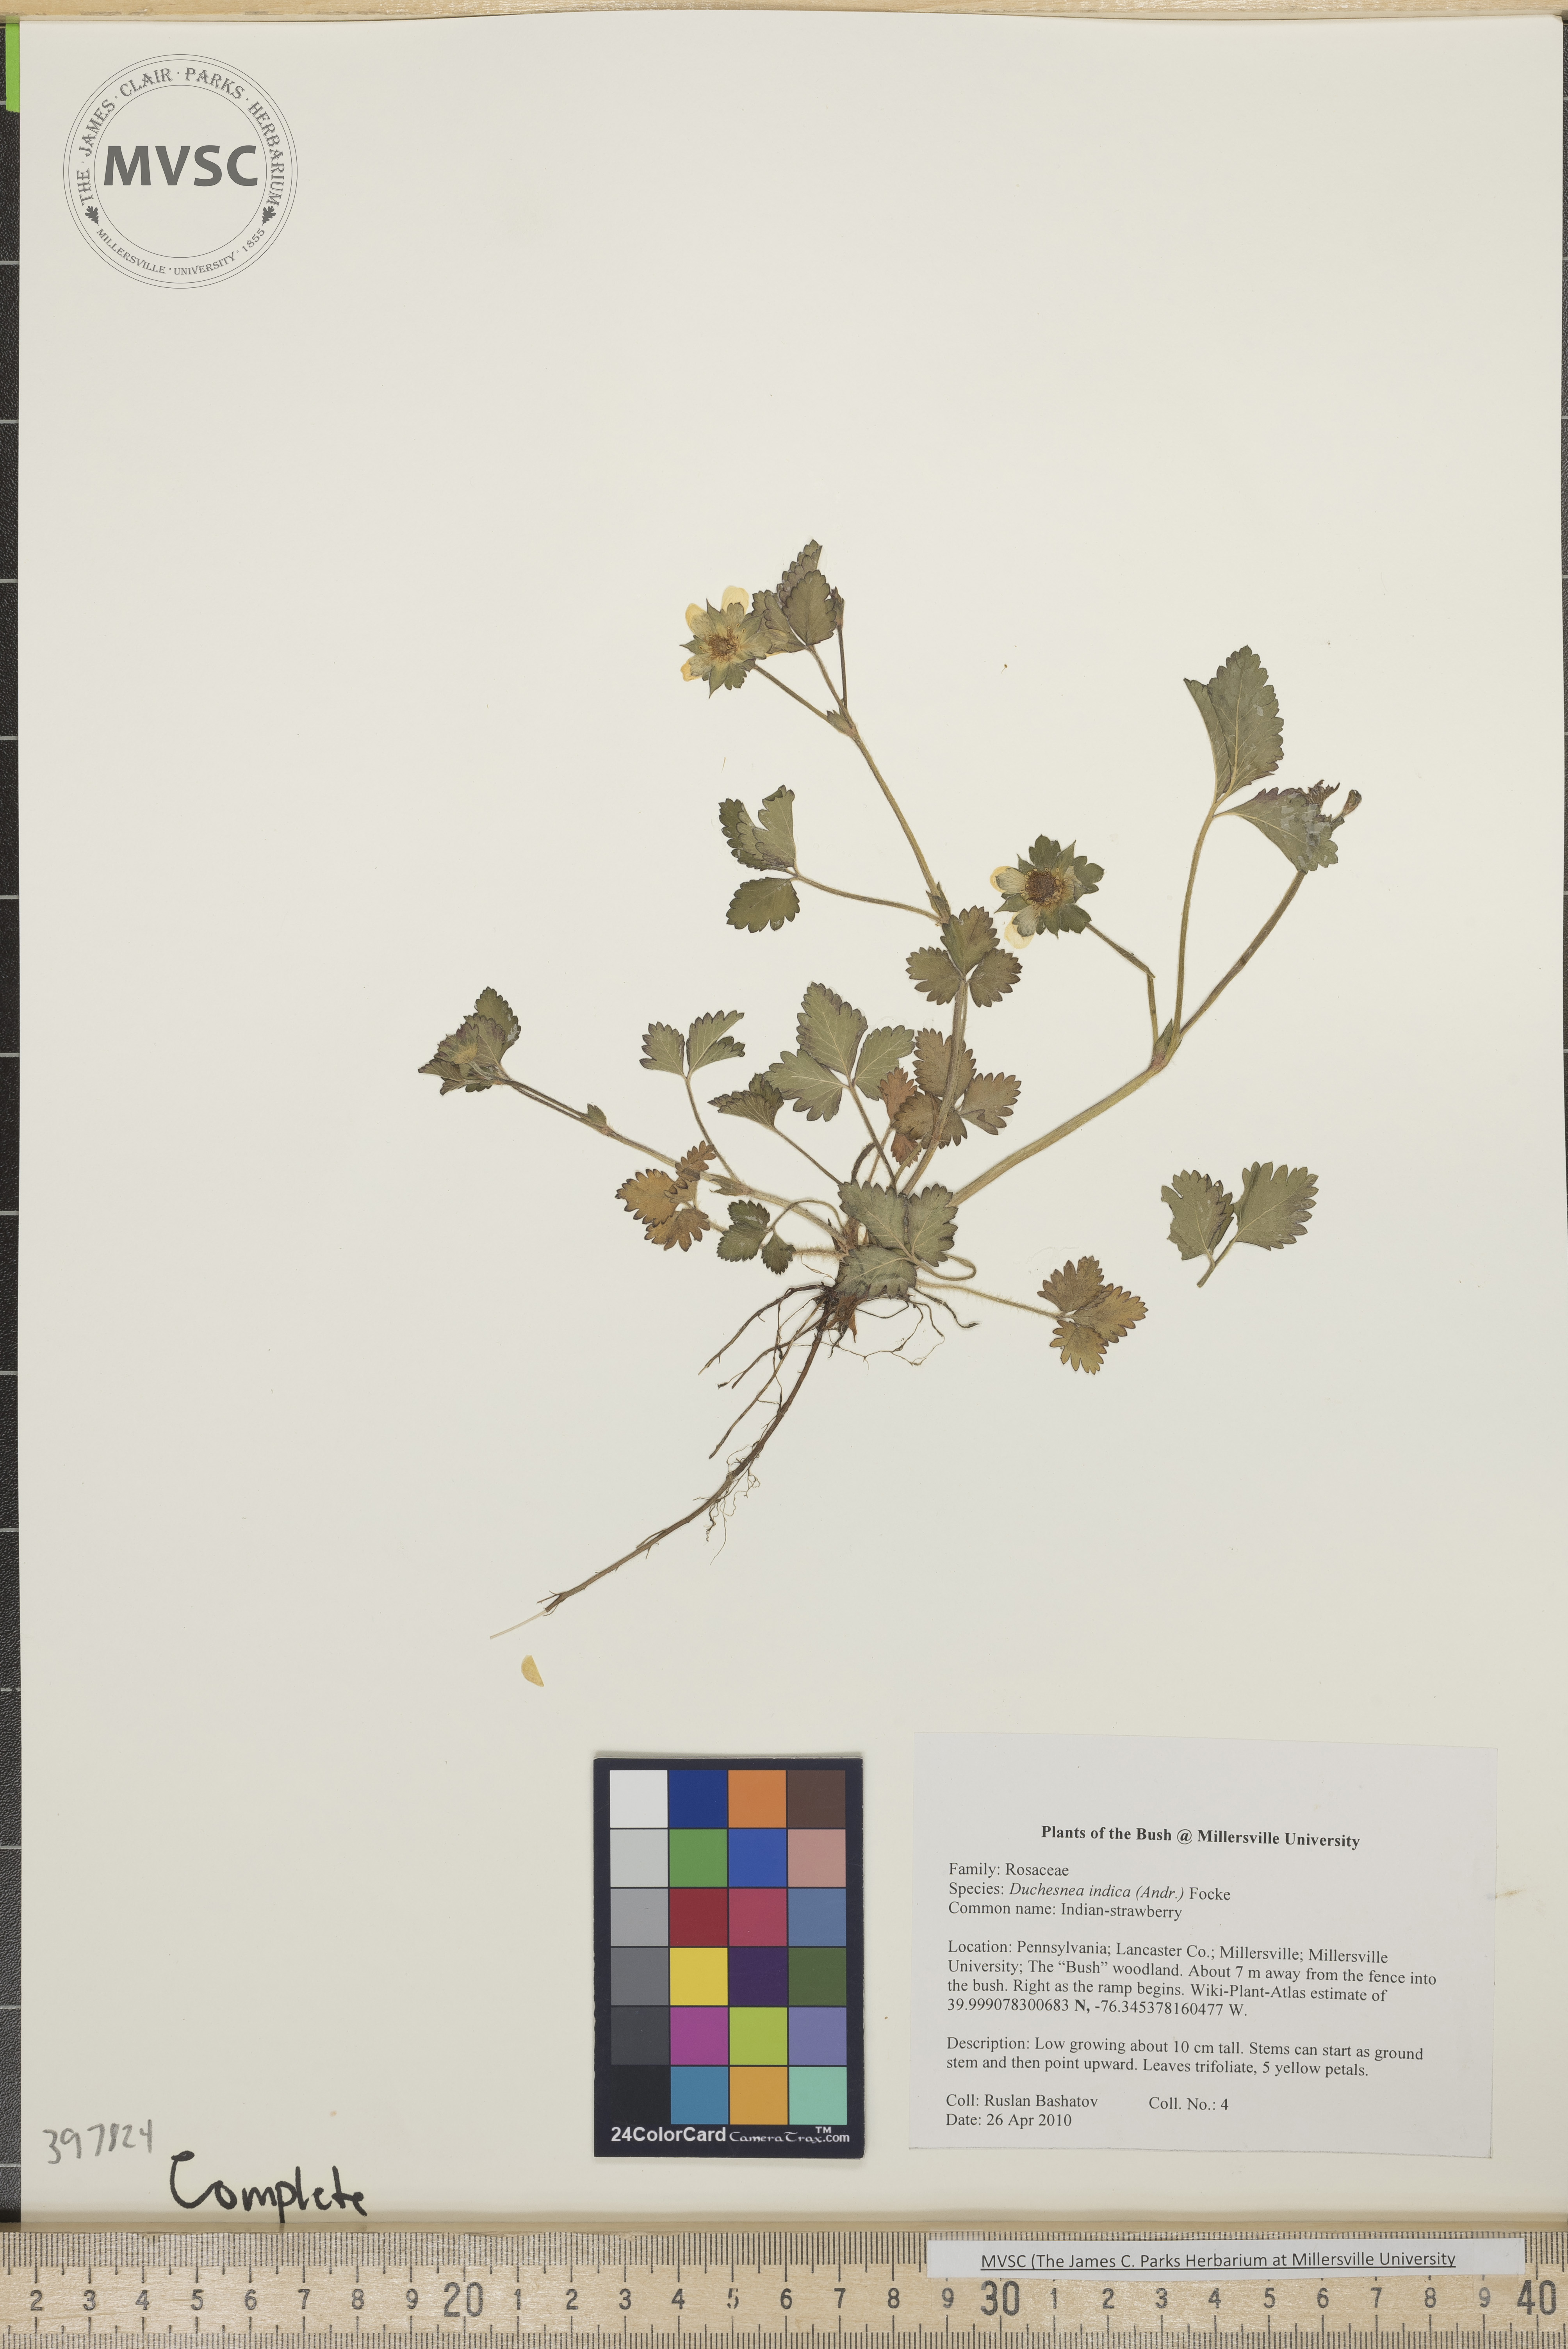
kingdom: Plantae
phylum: Tracheophyta
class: Magnoliopsida
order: Rosales
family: Rosaceae
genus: Potentilla
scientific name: Potentilla indica
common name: Indian strawberry
